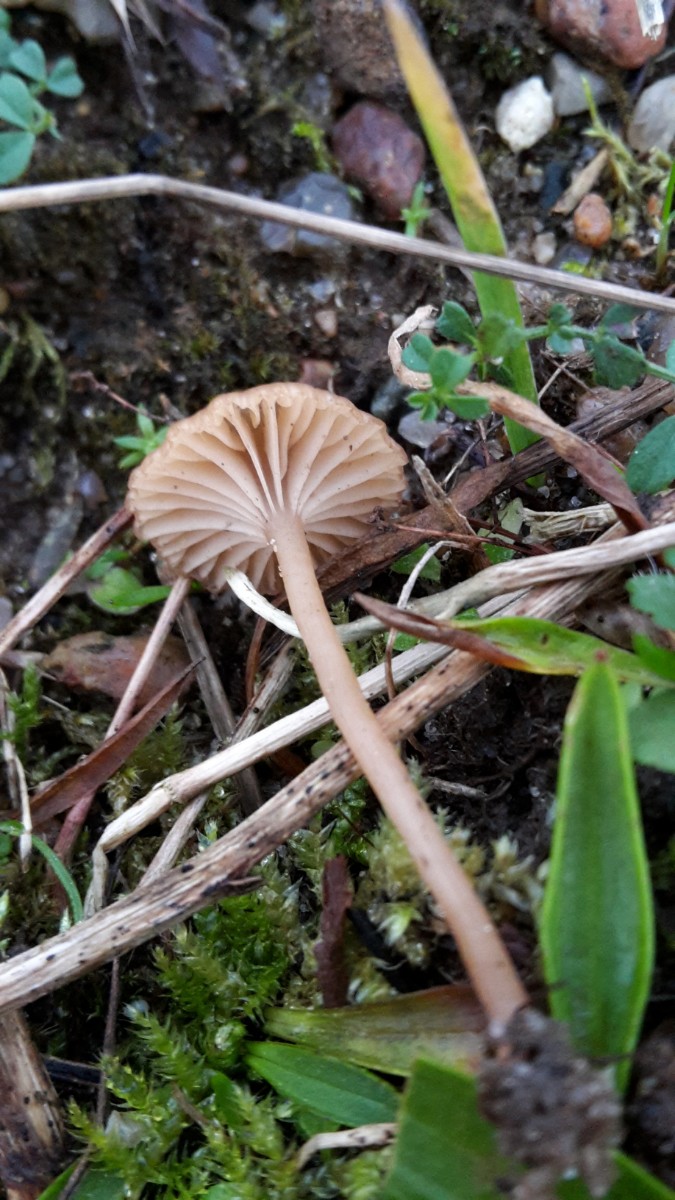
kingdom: Fungi
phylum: Basidiomycota
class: Agaricomycetes
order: Agaricales
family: Tricholomataceae
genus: Omphalina
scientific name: Omphalina pyxidata
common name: rødbrun navlehat
